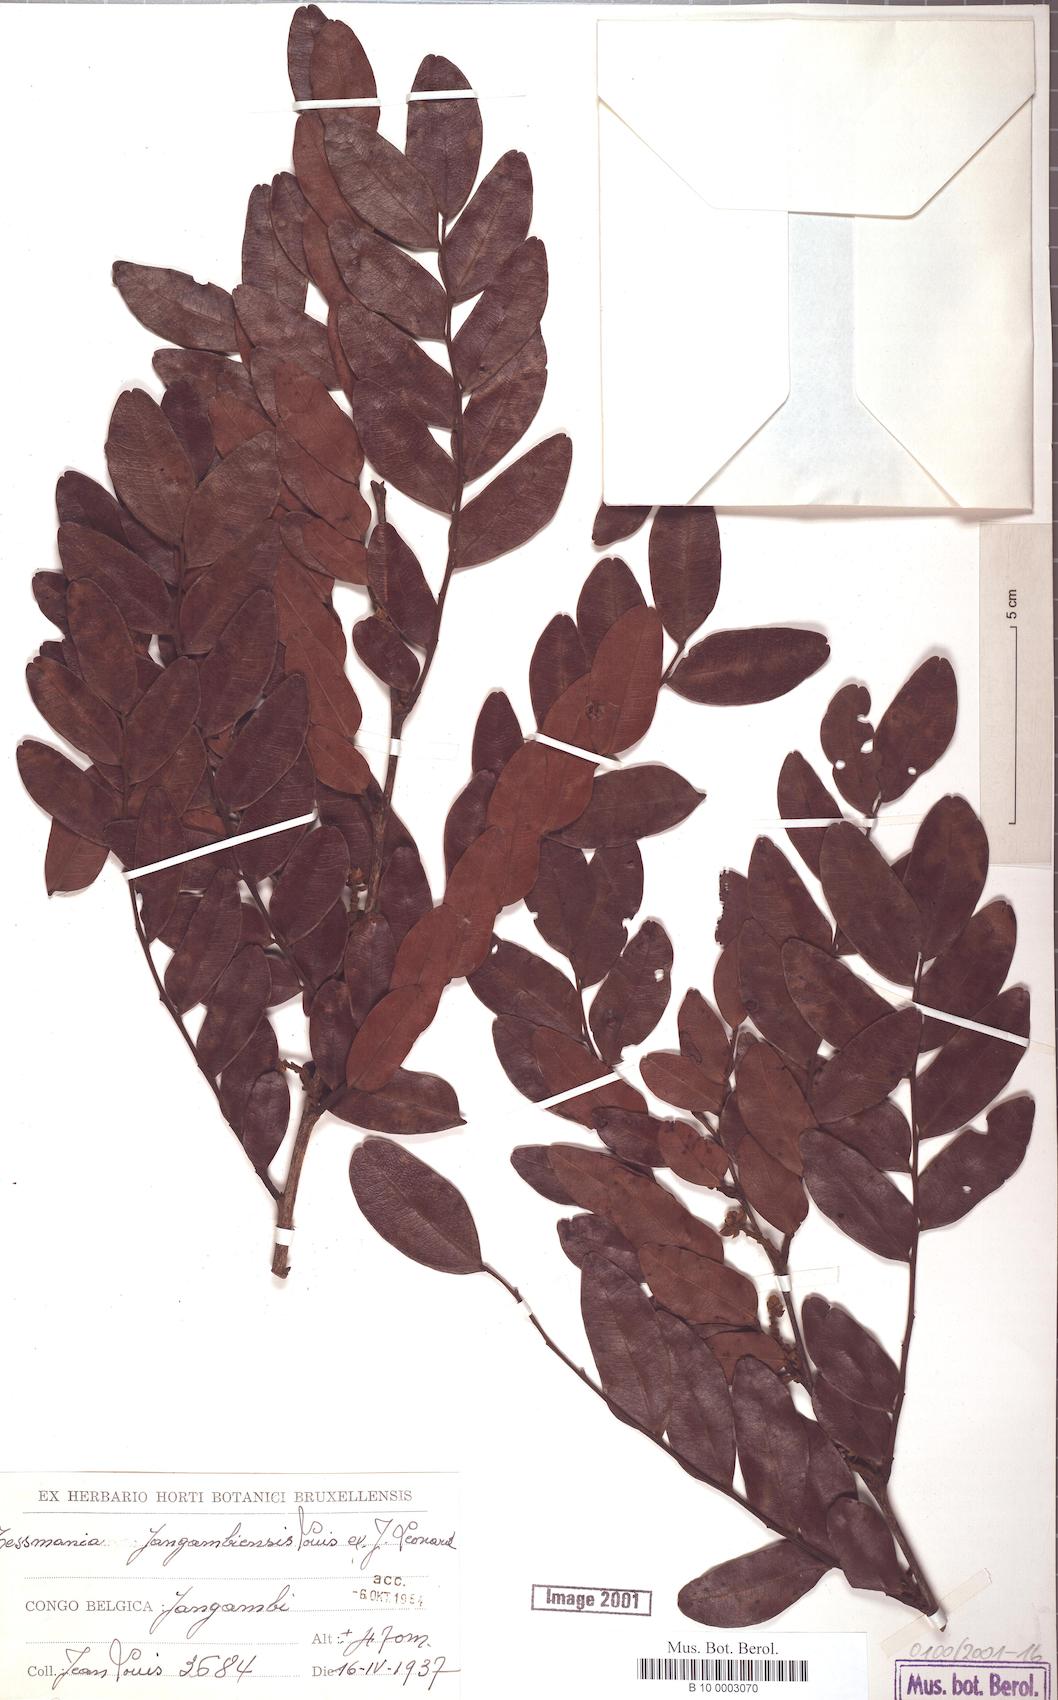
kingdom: Plantae
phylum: Tracheophyta
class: Magnoliopsida
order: Fabales
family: Fabaceae
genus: Tessmannia
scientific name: Tessmannia
